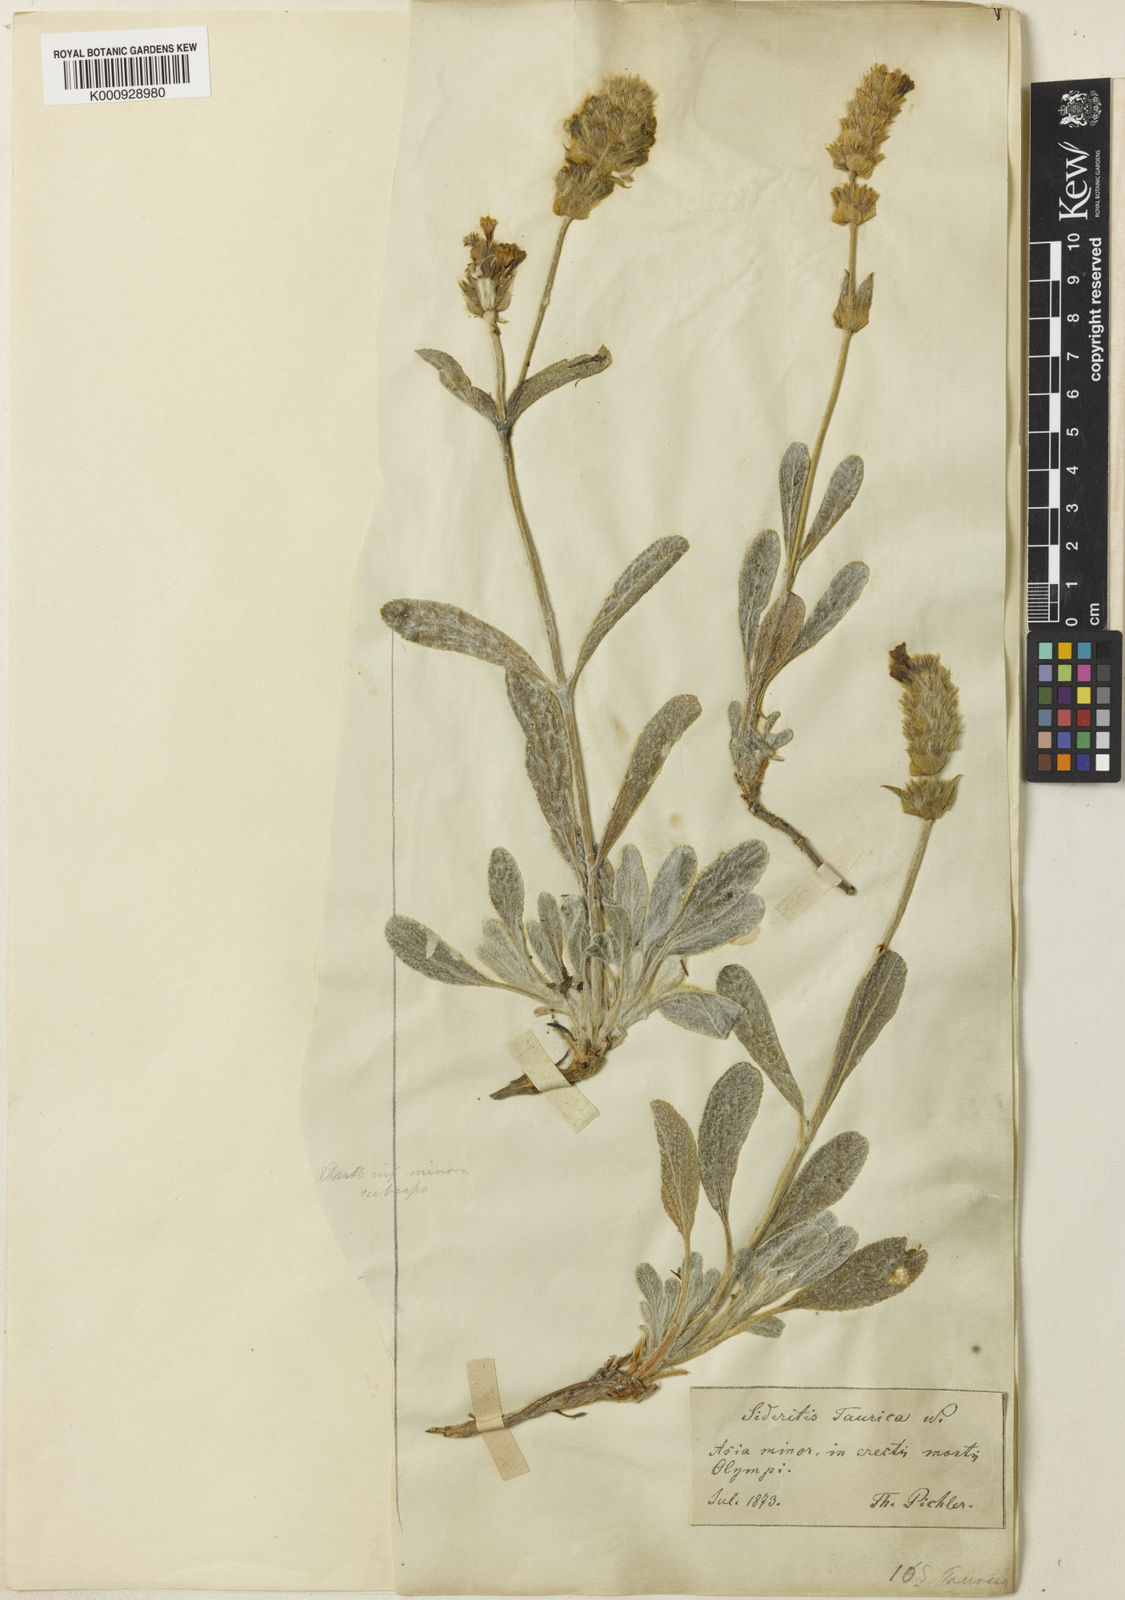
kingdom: Plantae
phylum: Tracheophyta
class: Magnoliopsida
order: Lamiales
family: Lamiaceae
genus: Sideritis
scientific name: Sideritis pisidica
